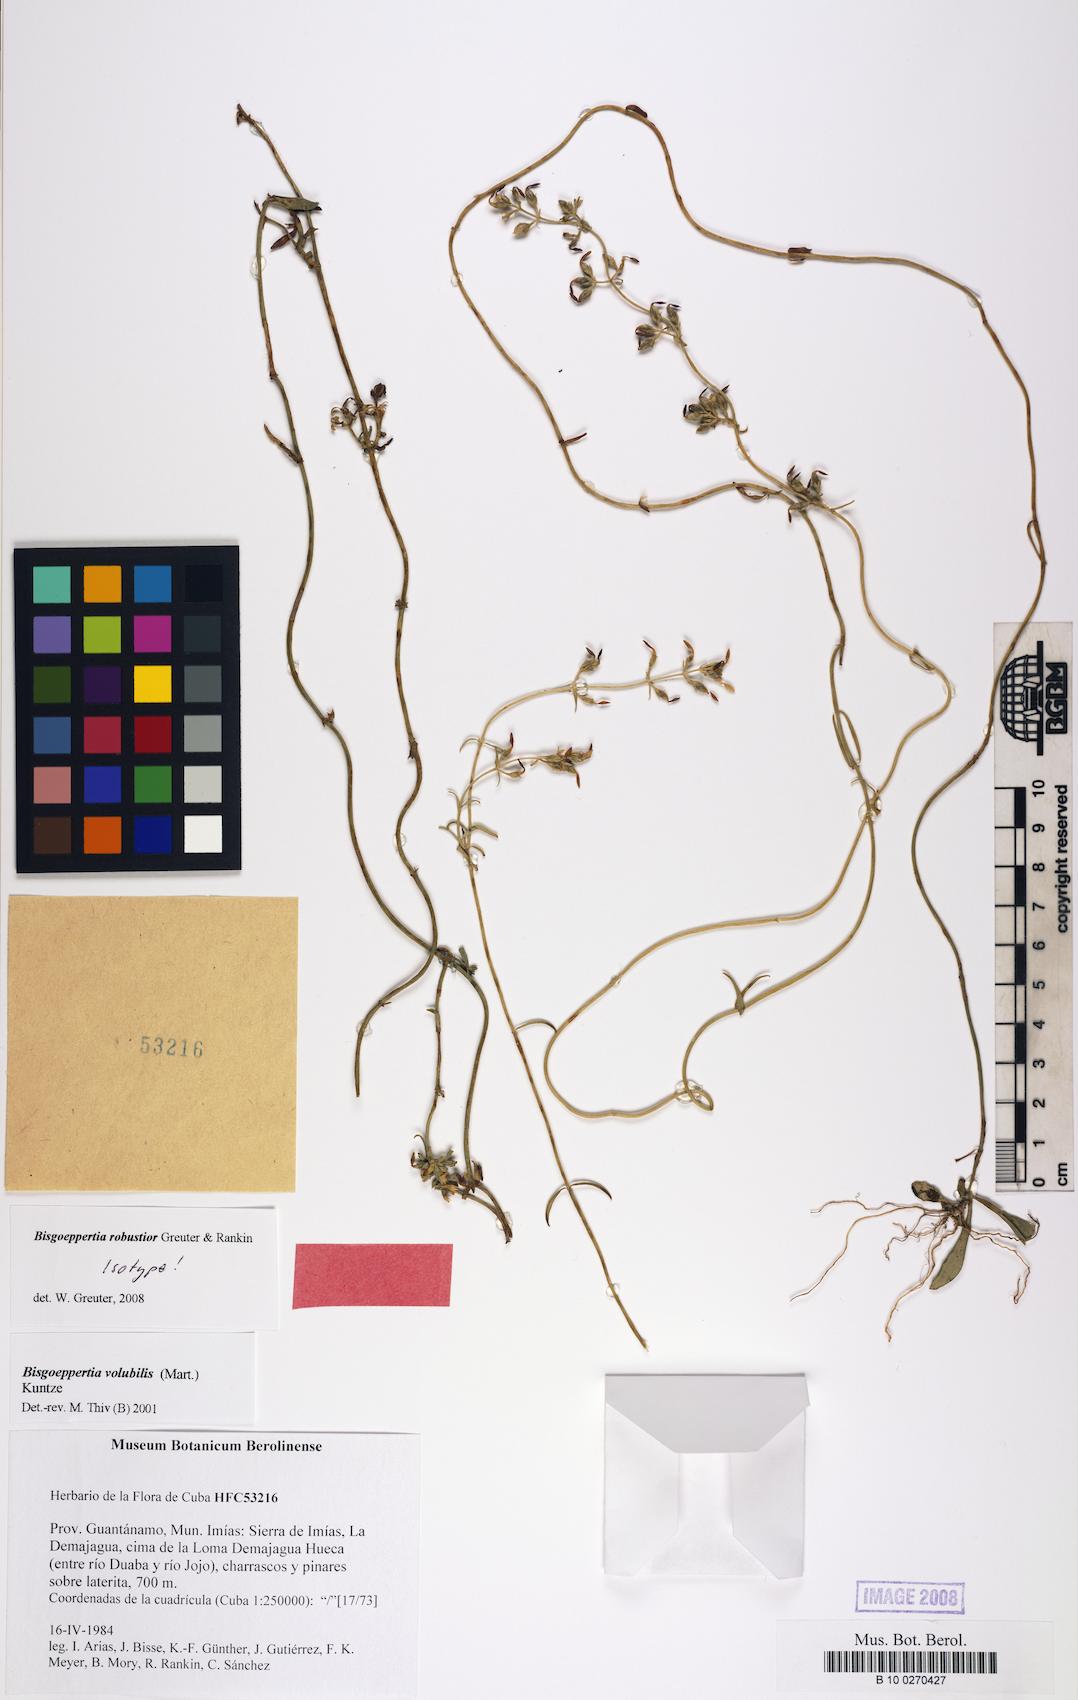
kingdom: Plantae
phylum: Tracheophyta
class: Magnoliopsida
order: Gentianales
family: Gentianaceae
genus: Bisgoeppertia
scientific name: Bisgoeppertia robustior
